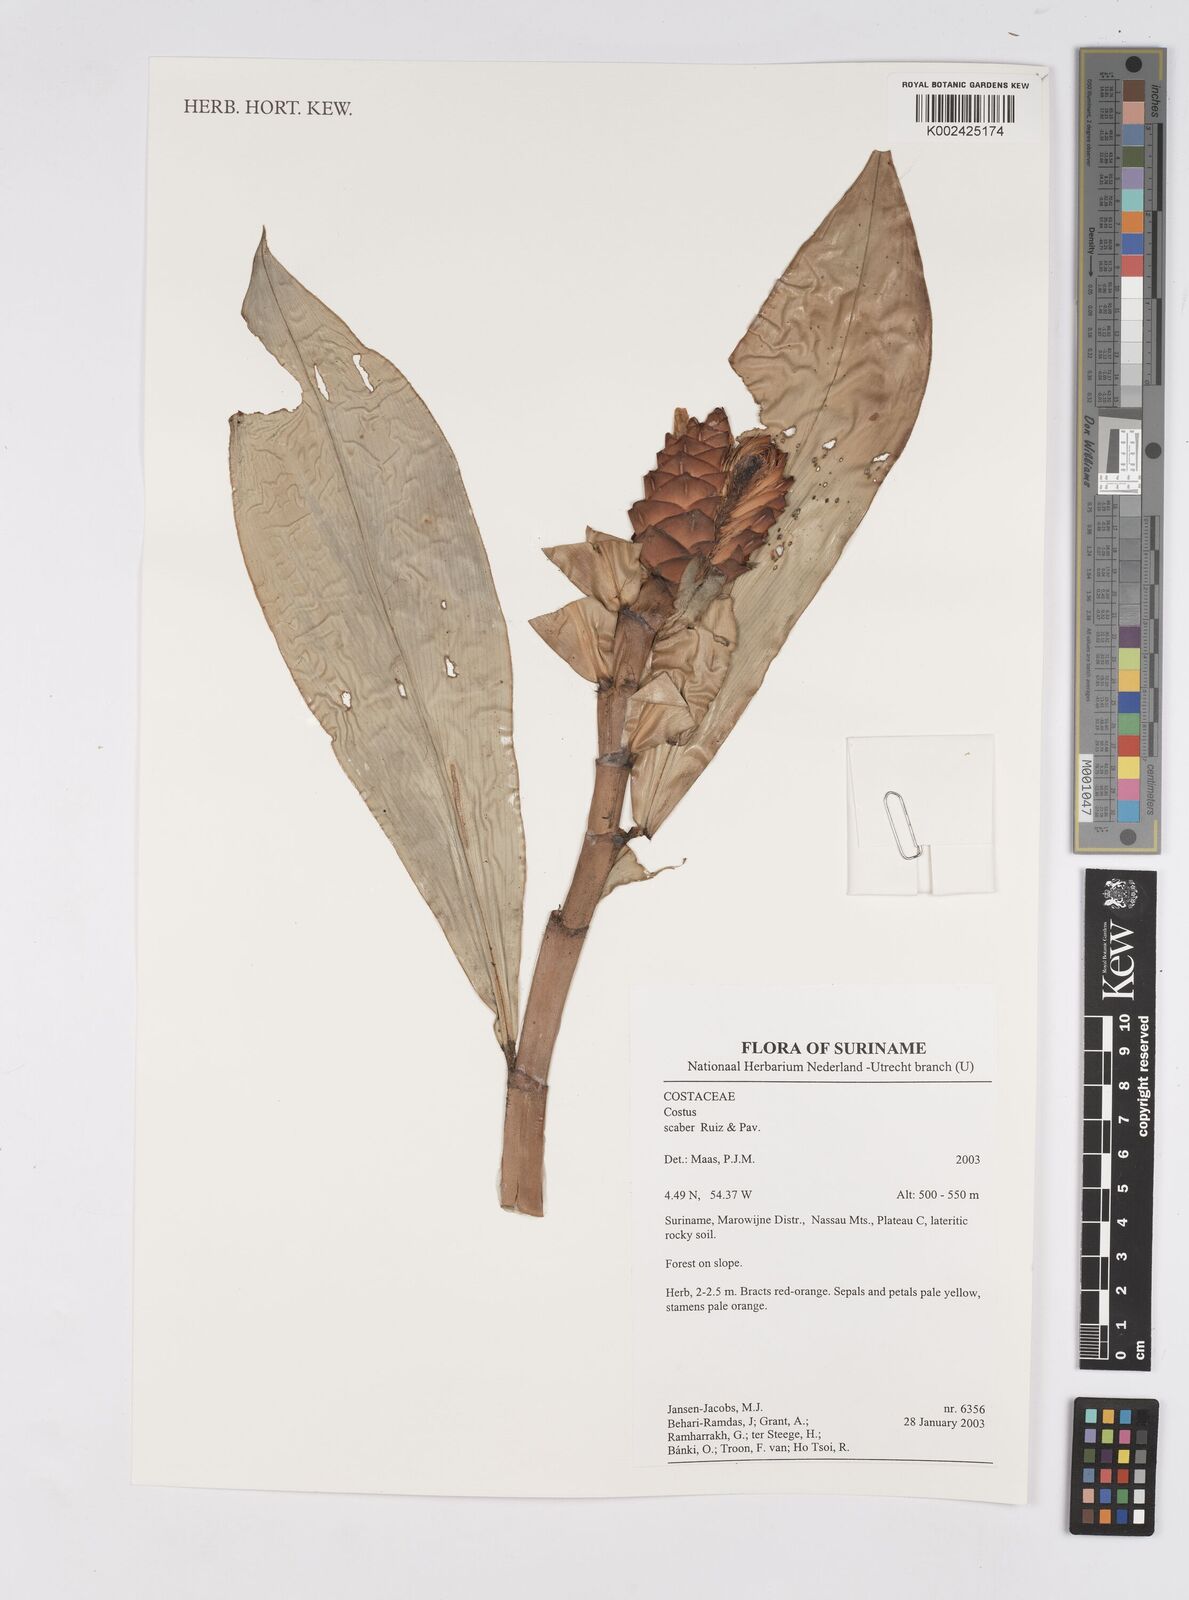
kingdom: Plantae
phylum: Tracheophyta
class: Liliopsida
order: Zingiberales
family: Costaceae
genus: Costus
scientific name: Costus scaber
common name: Spiral head ginger
